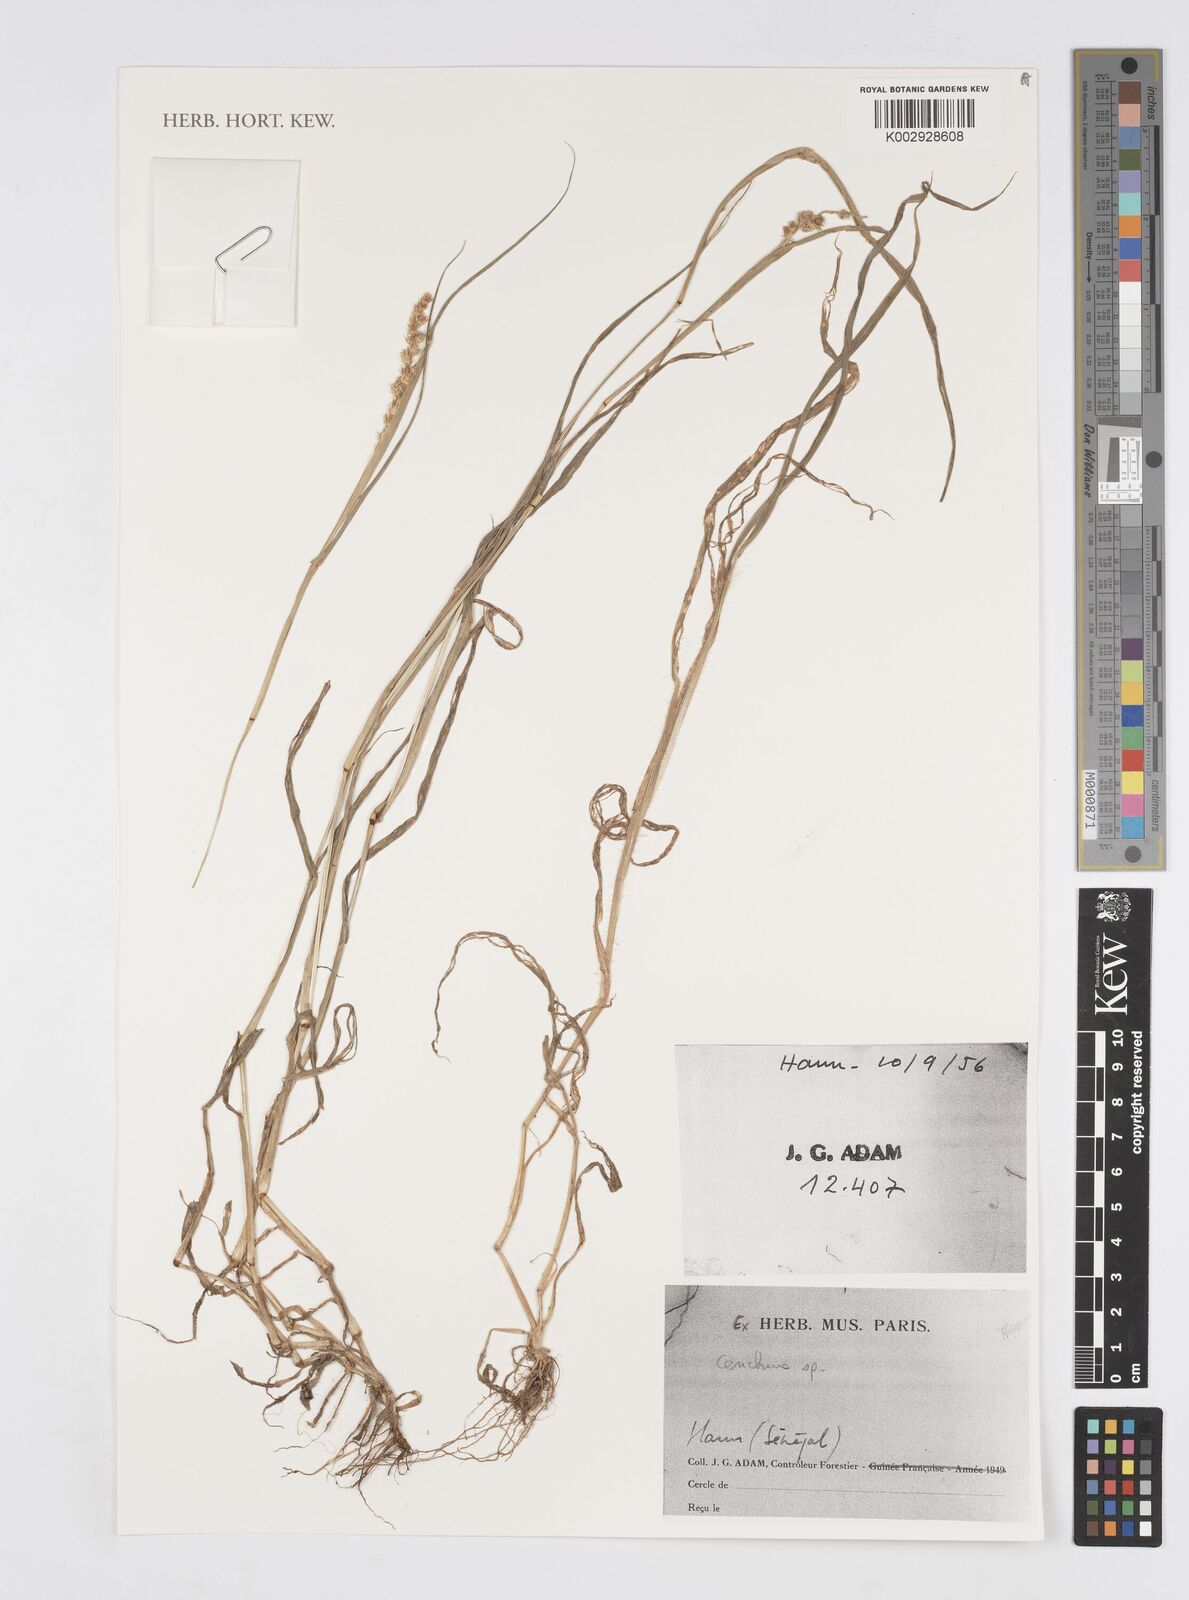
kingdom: Plantae
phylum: Tracheophyta
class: Liliopsida
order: Poales
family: Poaceae
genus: Cenchrus
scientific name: Cenchrus
